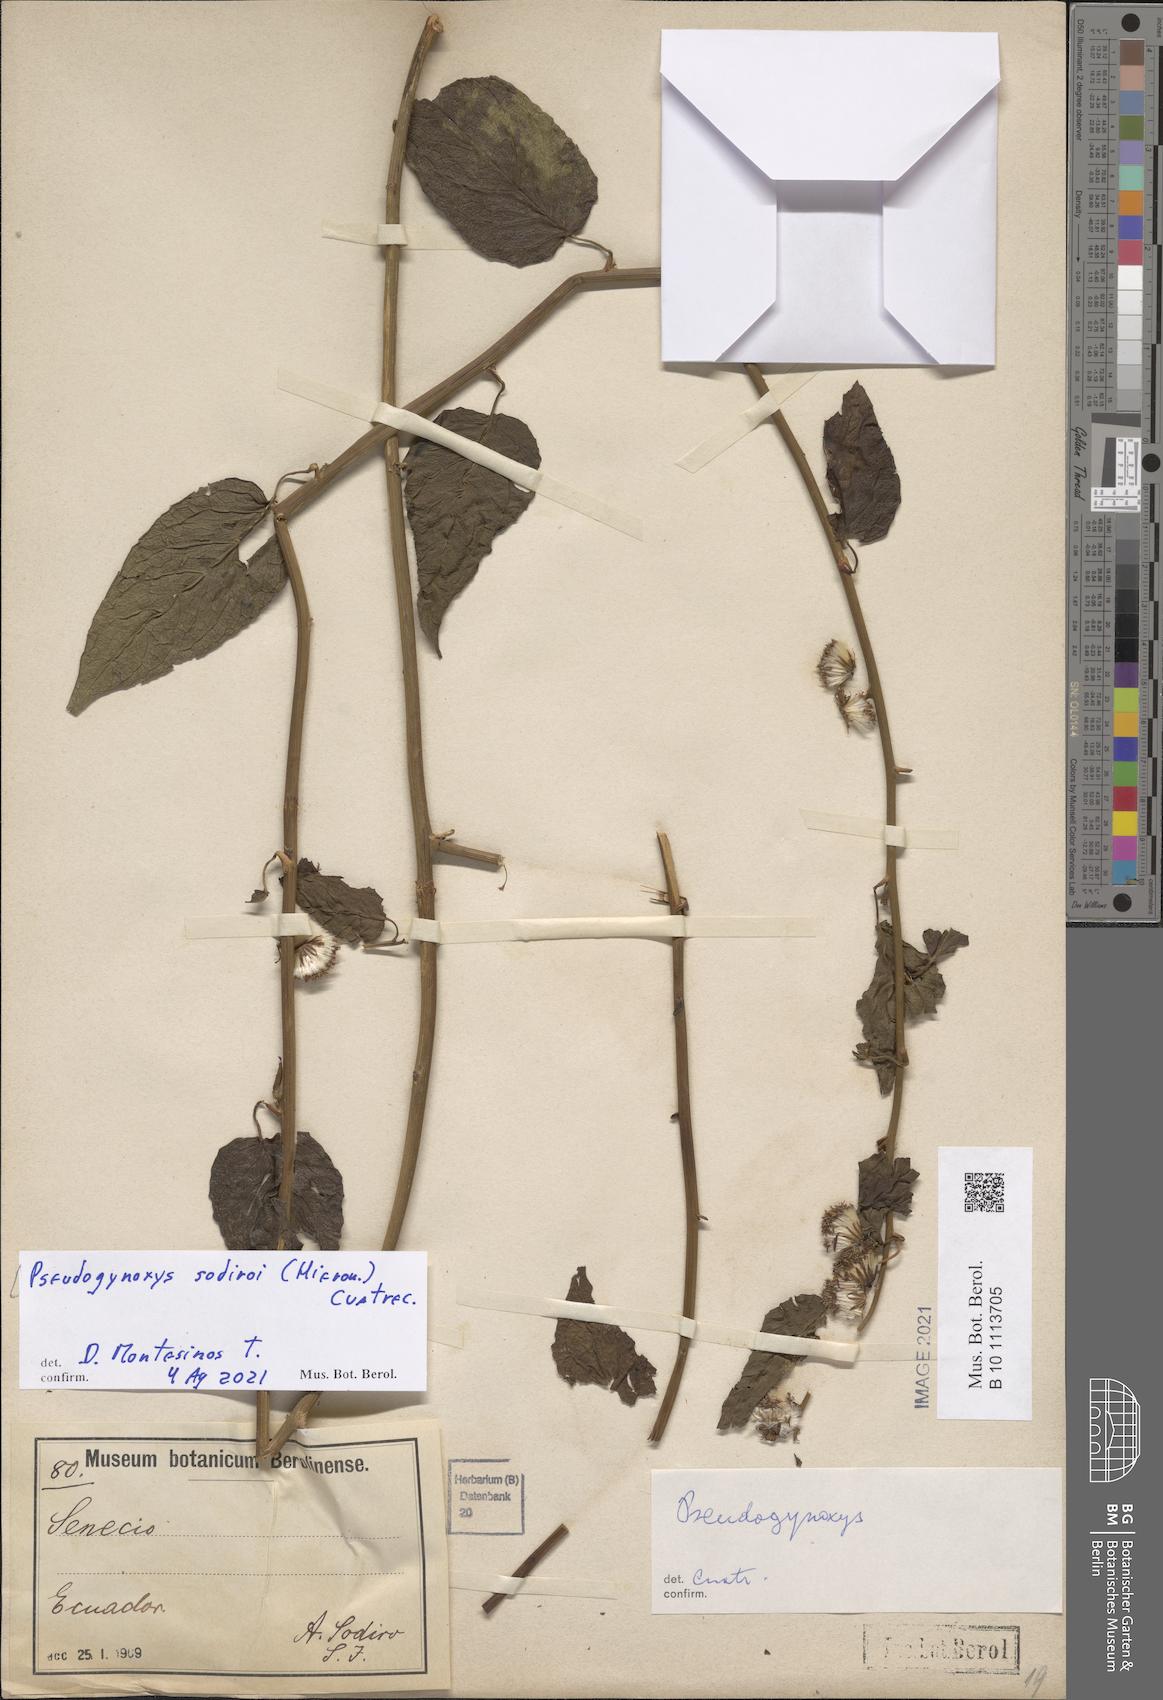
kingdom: Plantae
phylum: Tracheophyta
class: Magnoliopsida
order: Asterales
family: Asteraceae
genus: Pseudogynoxys
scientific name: Pseudogynoxys sodiroi
